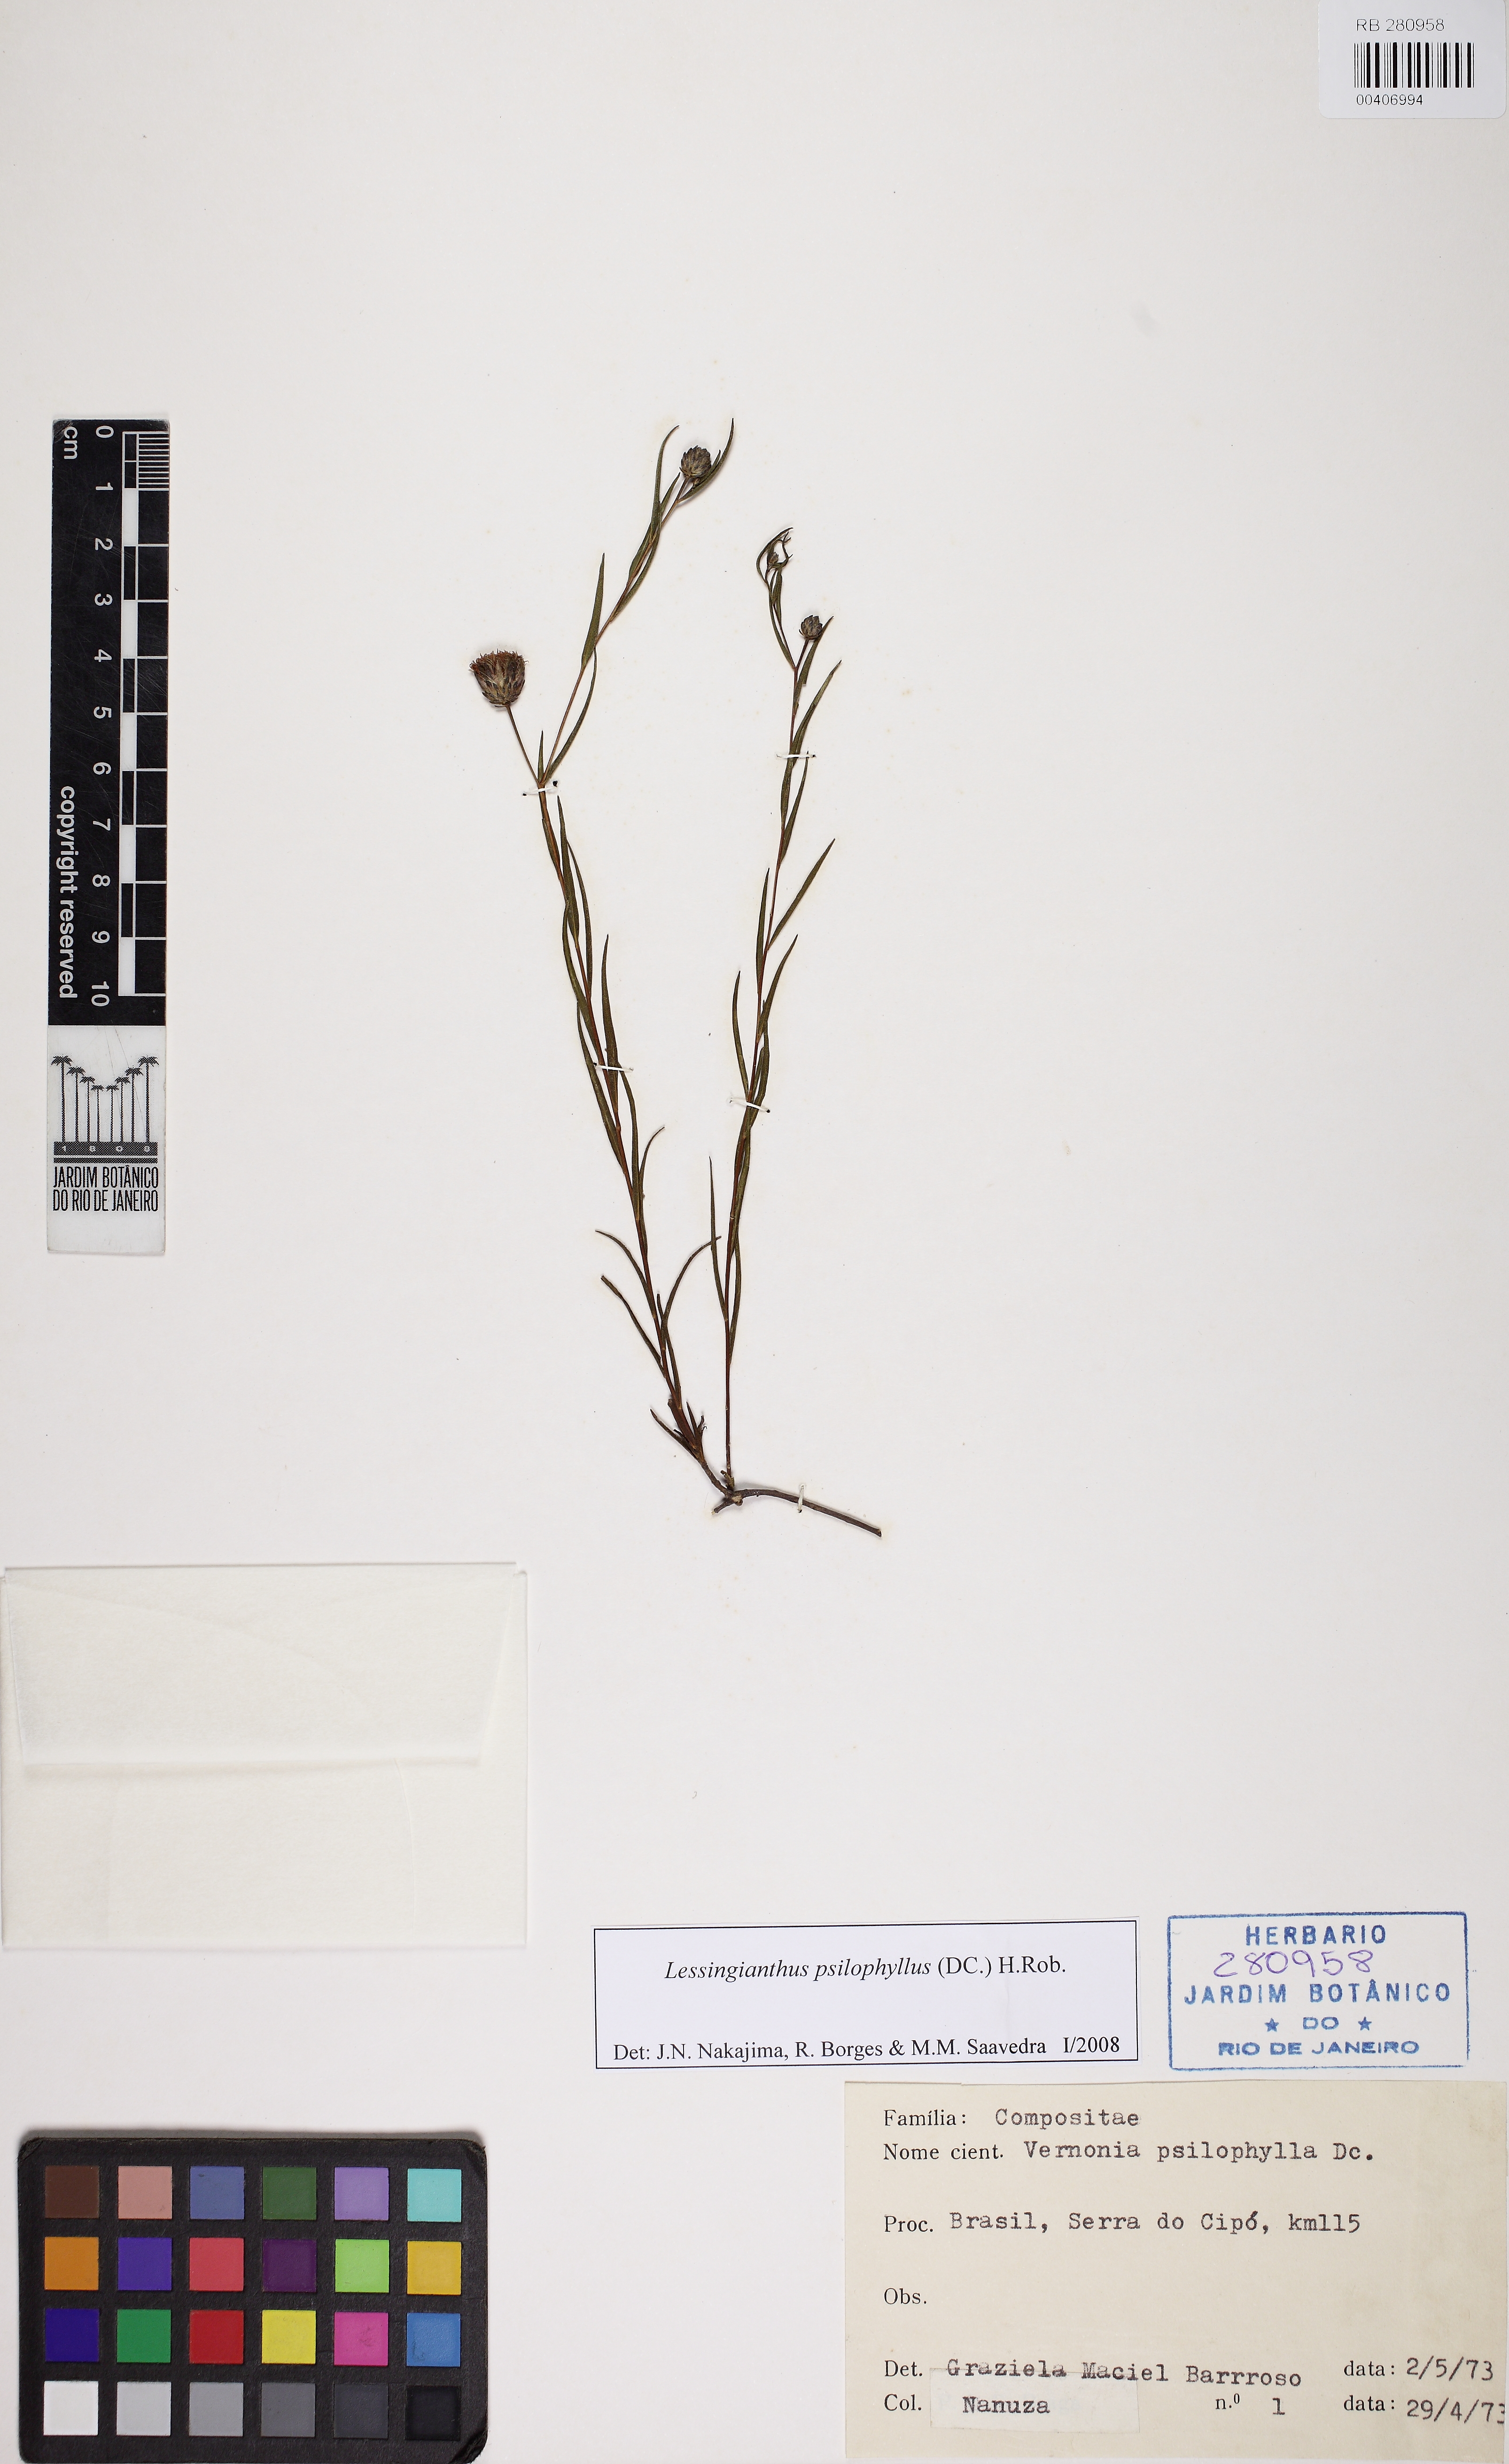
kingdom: Plantae
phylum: Tracheophyta
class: Magnoliopsida
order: Asterales
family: Asteraceae
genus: Lessingianthus
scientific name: Lessingianthus psilophyllus
